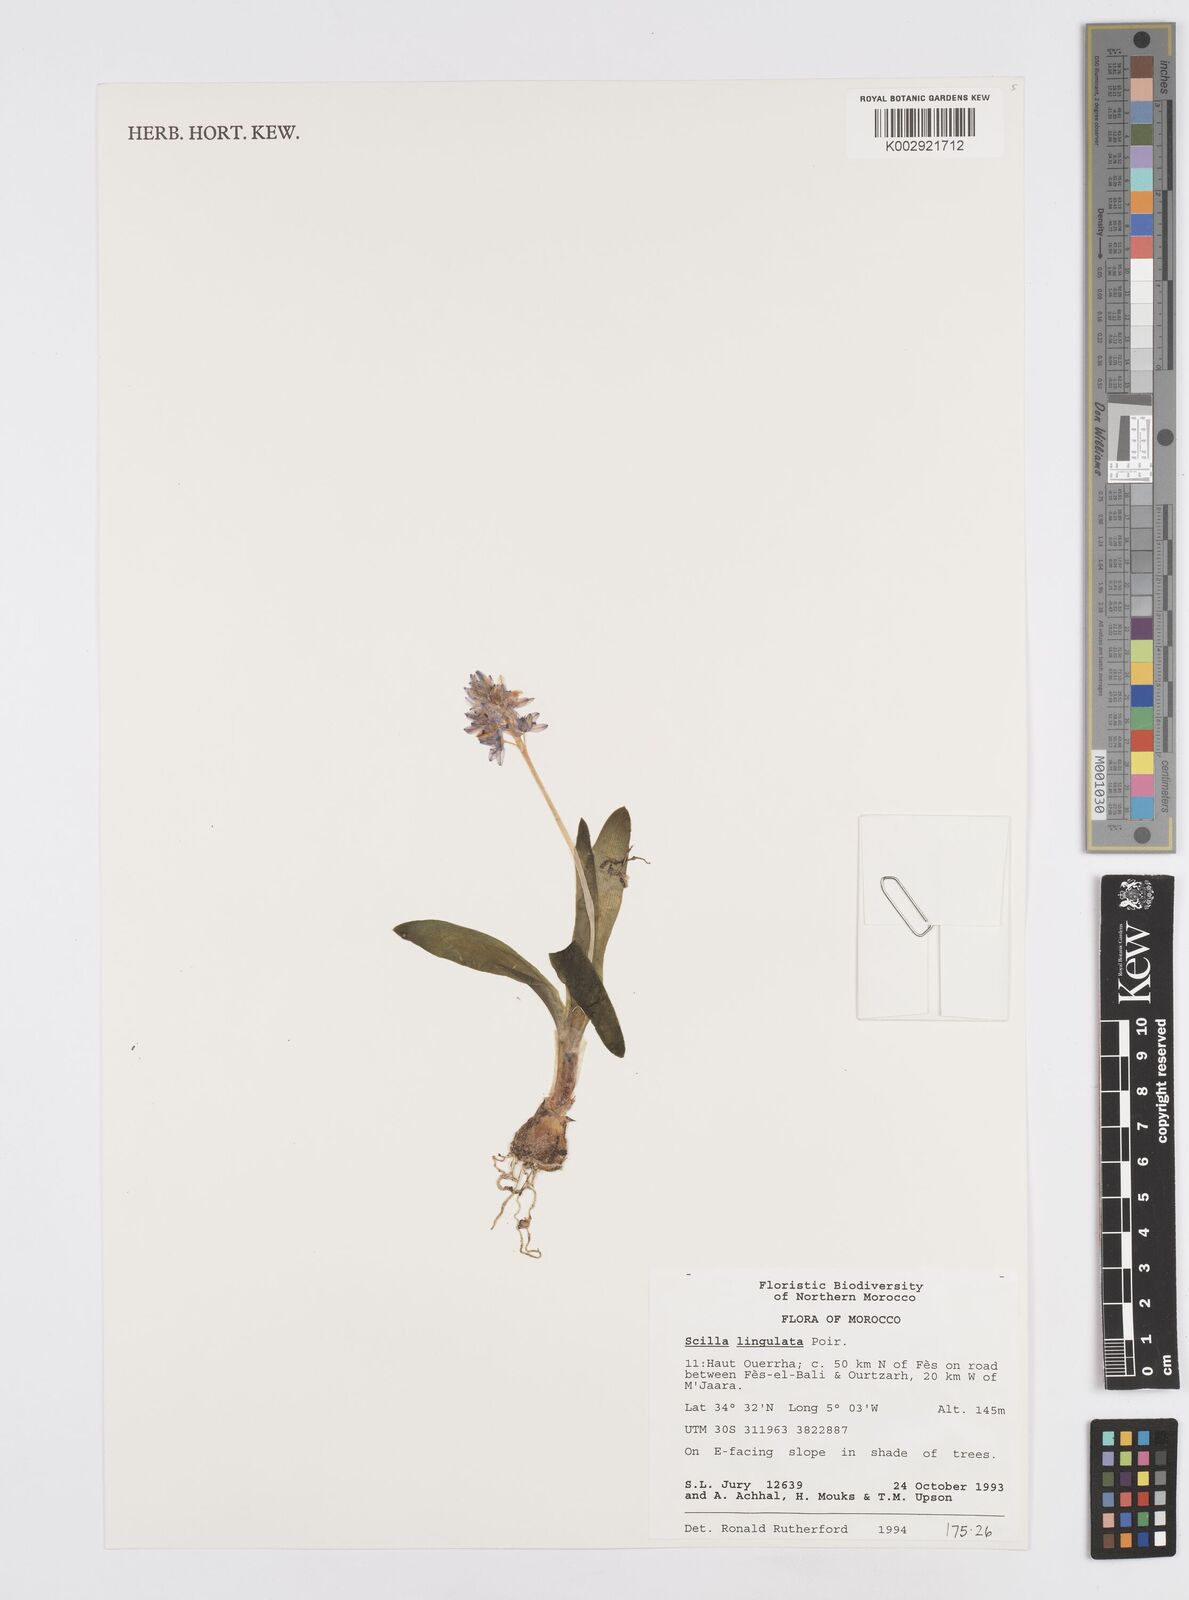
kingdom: Plantae
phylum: Tracheophyta
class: Liliopsida
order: Asparagales
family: Asparagaceae
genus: Hyacinthoides
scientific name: Hyacinthoides lingulata
